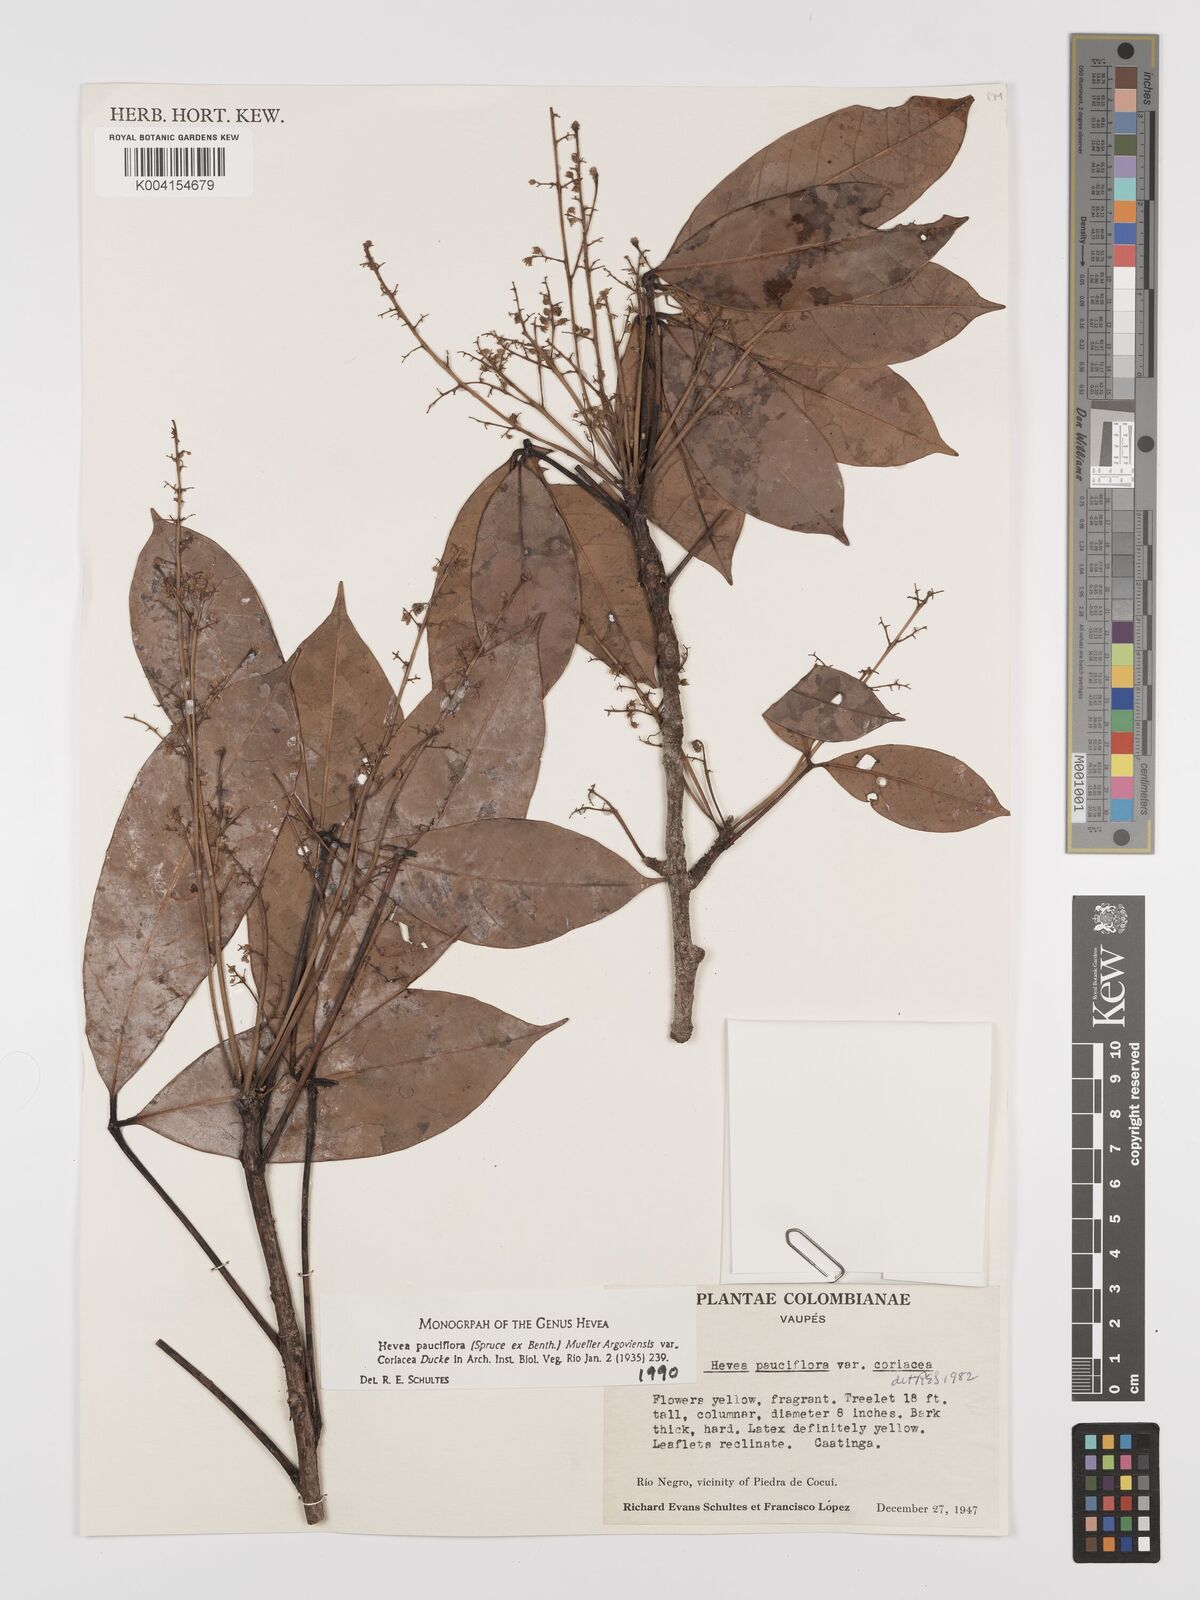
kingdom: Plantae
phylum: Tracheophyta
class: Magnoliopsida
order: Malpighiales
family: Euphorbiaceae
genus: Hevea
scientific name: Hevea pauciflora
